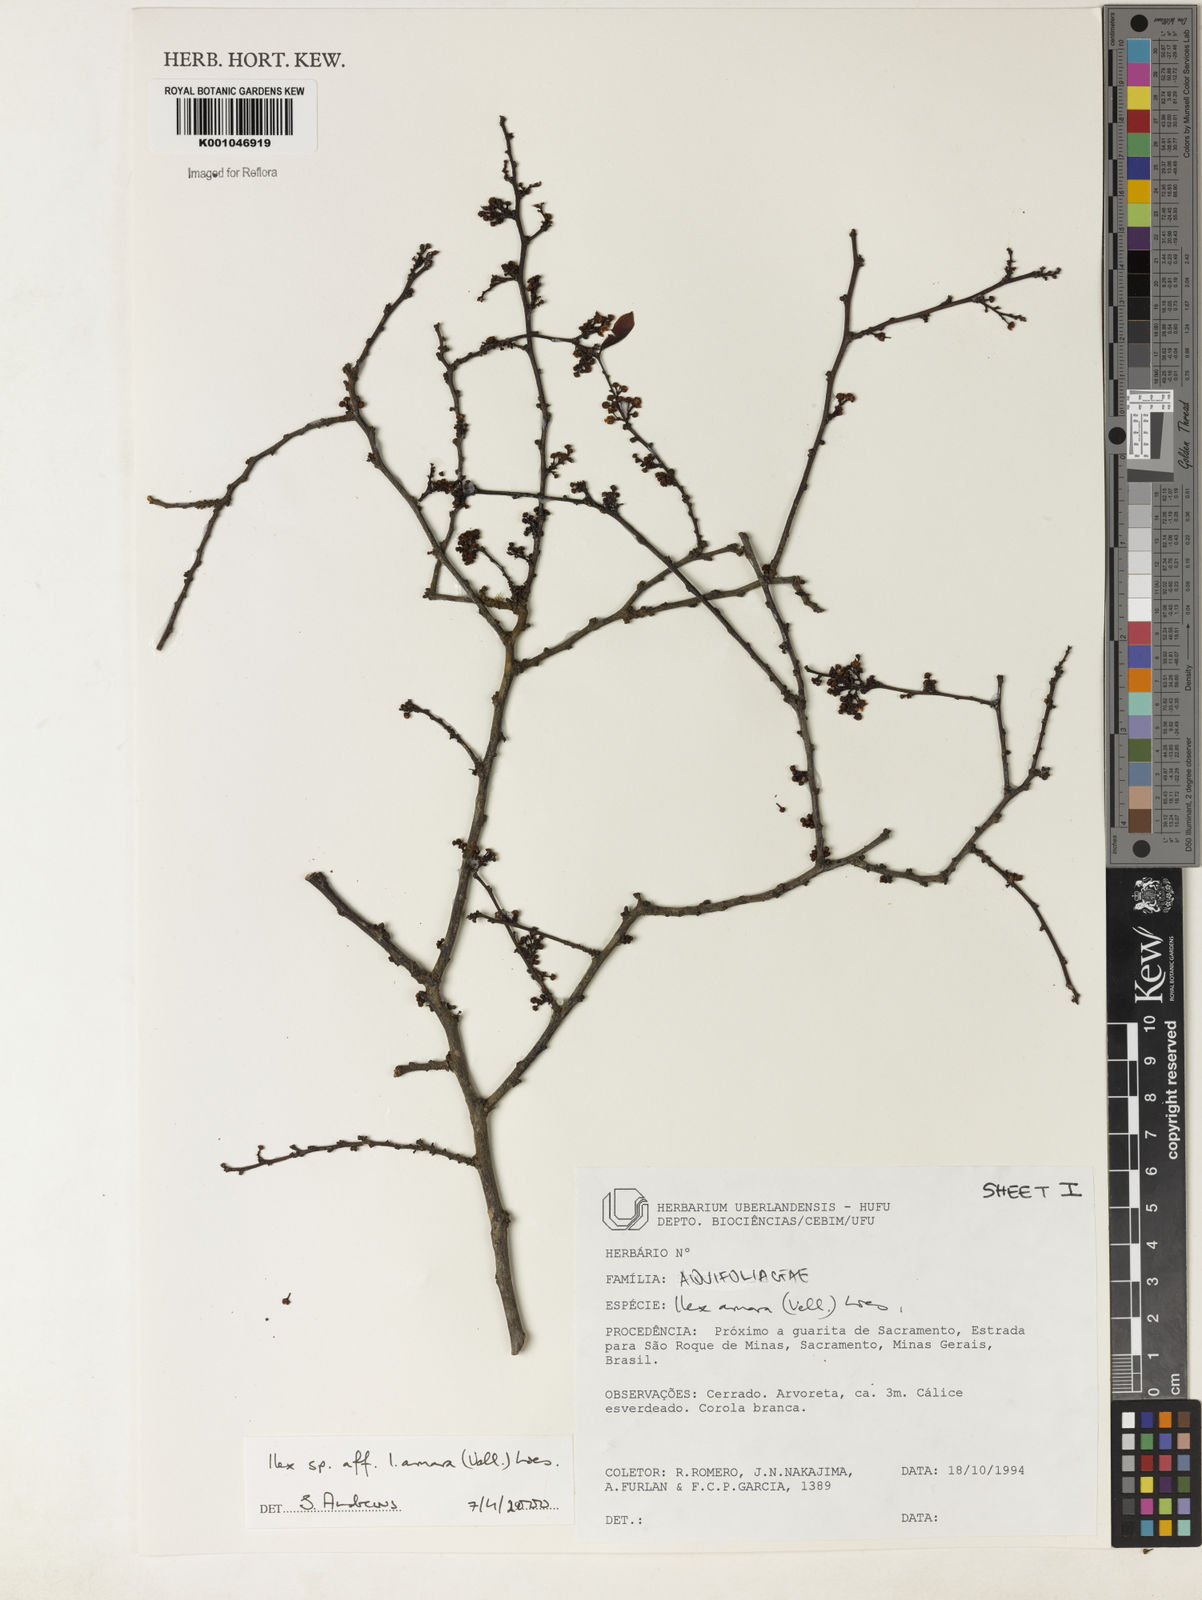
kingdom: Plantae
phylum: Tracheophyta
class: Magnoliopsida
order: Aquifoliales
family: Aquifoliaceae
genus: Ilex
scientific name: Ilex
